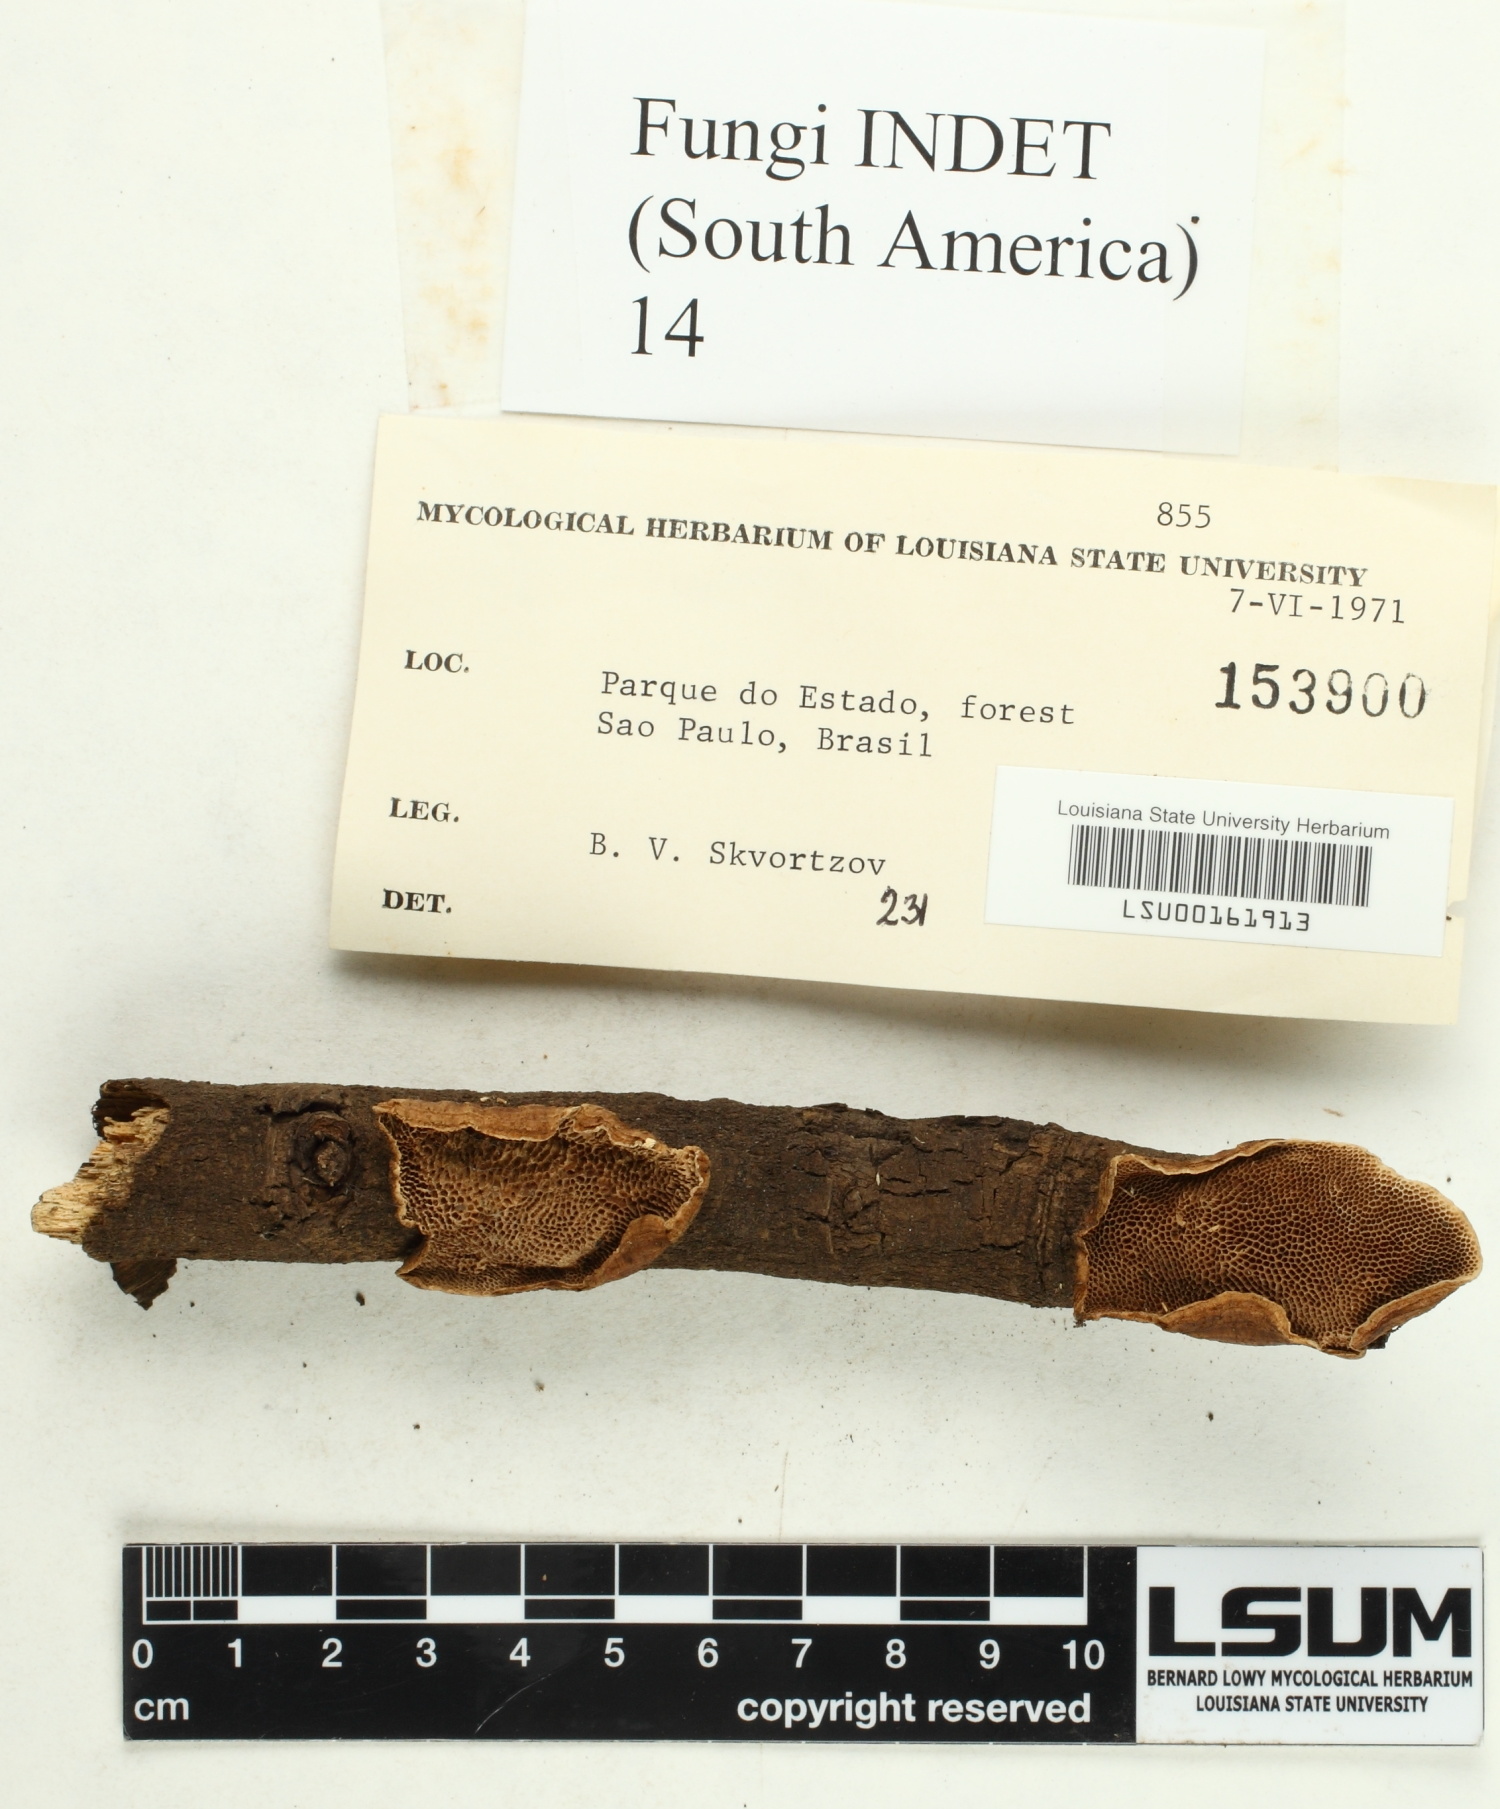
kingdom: Fungi
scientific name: Fungi
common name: Fungi
